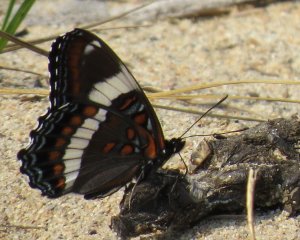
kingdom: Animalia
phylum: Arthropoda
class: Insecta
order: Lepidoptera
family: Nymphalidae
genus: Limenitis
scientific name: Limenitis arthemis
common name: Red-spotted Admiral
